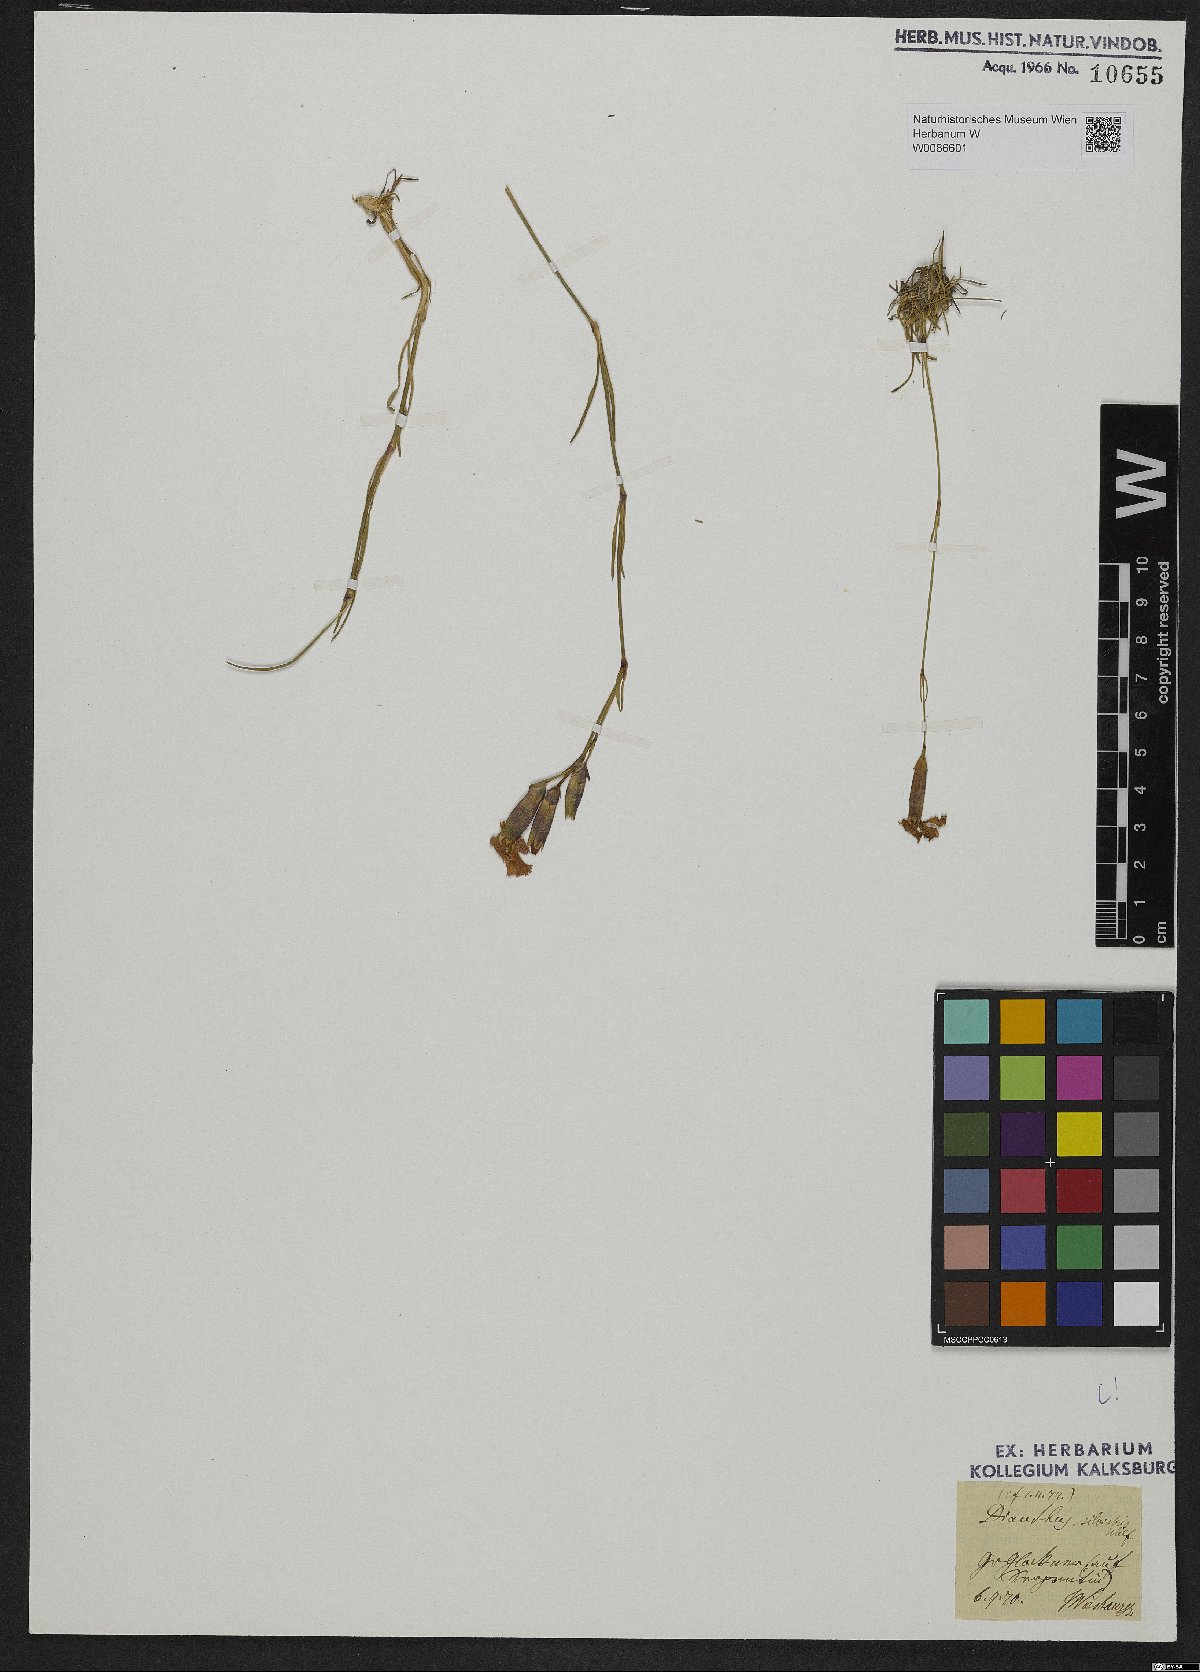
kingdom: Plantae
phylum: Tracheophyta
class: Magnoliopsida
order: Caryophyllales
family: Caryophyllaceae
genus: Dianthus
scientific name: Dianthus sylvestris
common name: Wood pink
